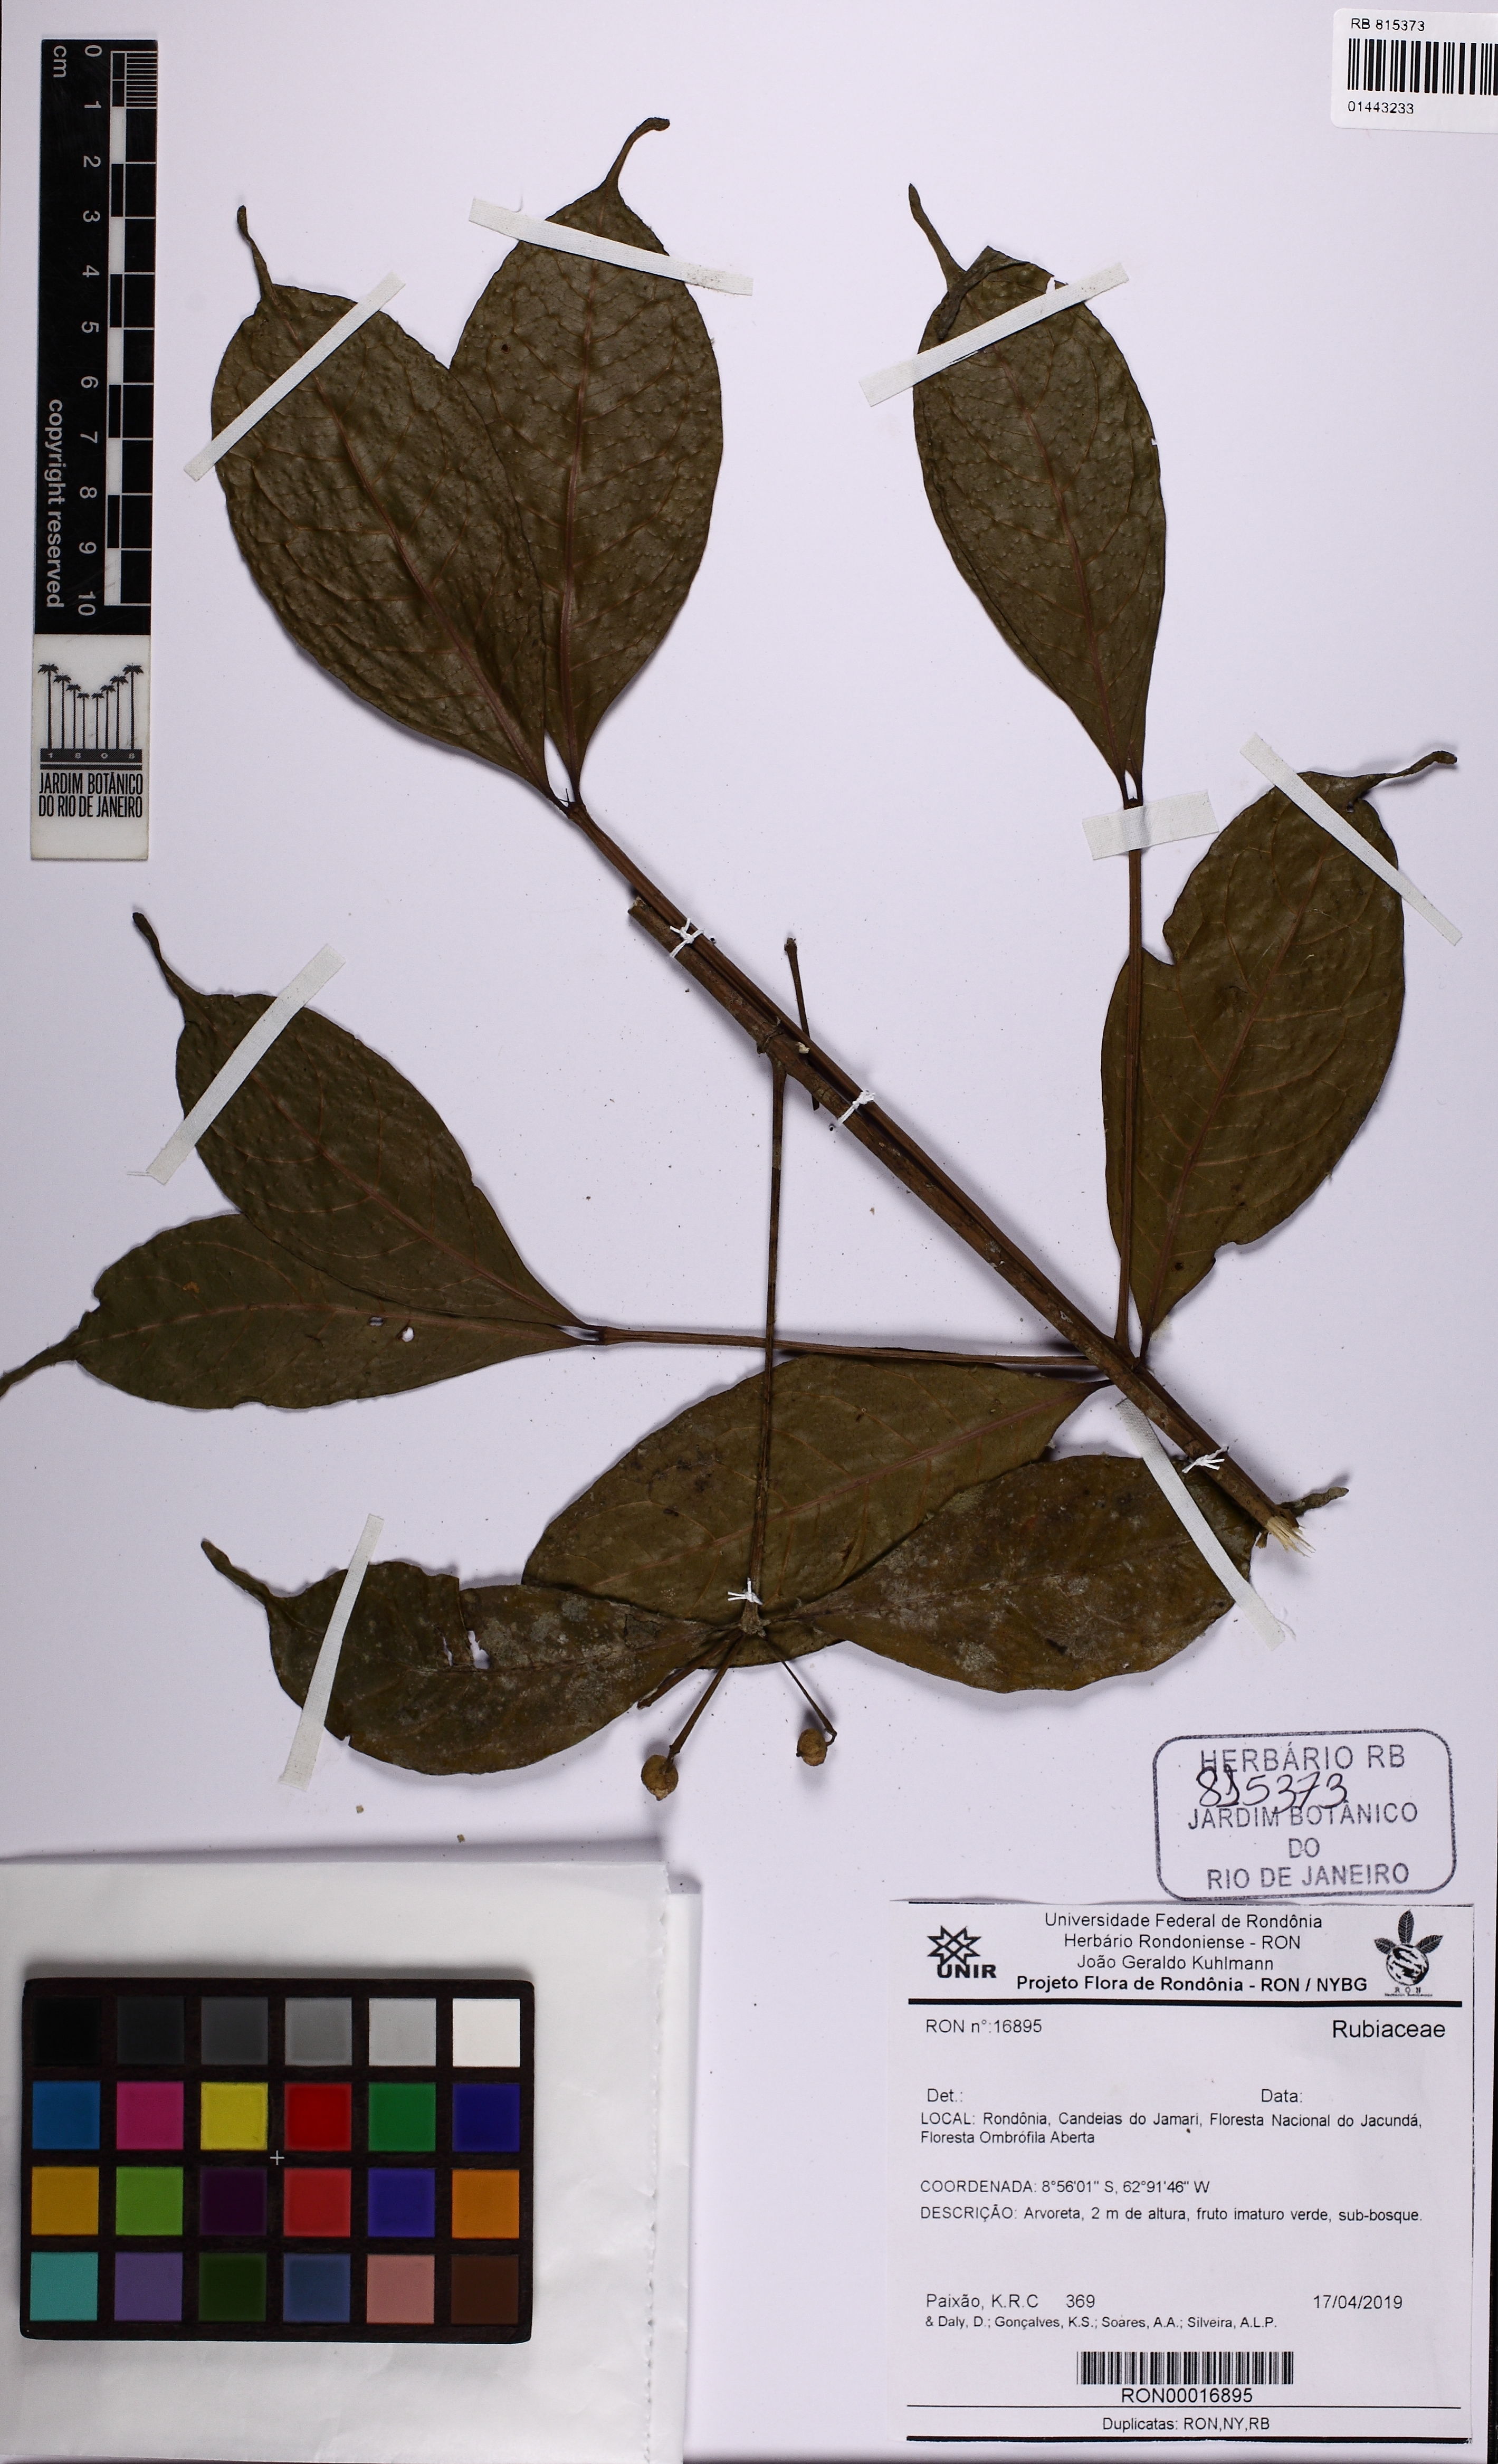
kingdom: Plantae
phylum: Tracheophyta
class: Magnoliopsida
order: Gentianales
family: Rubiaceae
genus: Faramea
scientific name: Faramea anisocalyx
